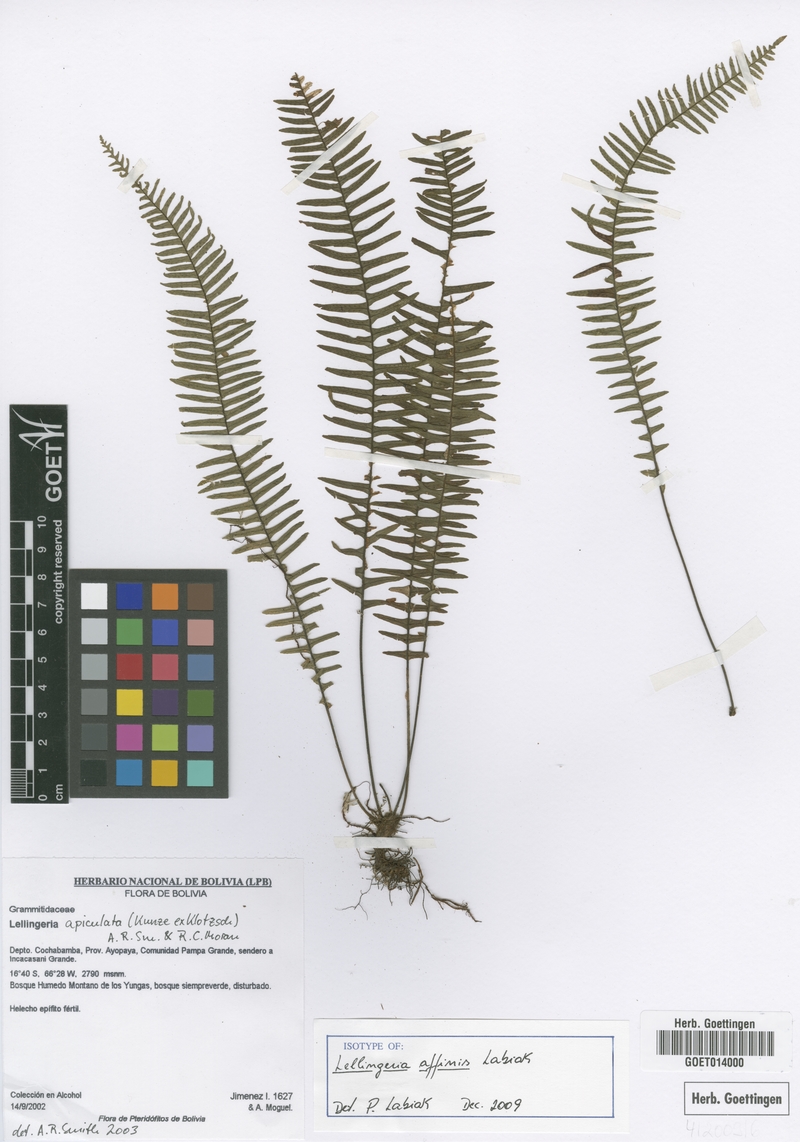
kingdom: Plantae
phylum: Tracheophyta
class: Polypodiopsida
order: Polypodiales
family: Polypodiaceae
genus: Lellingeria
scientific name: Lellingeria affinis
